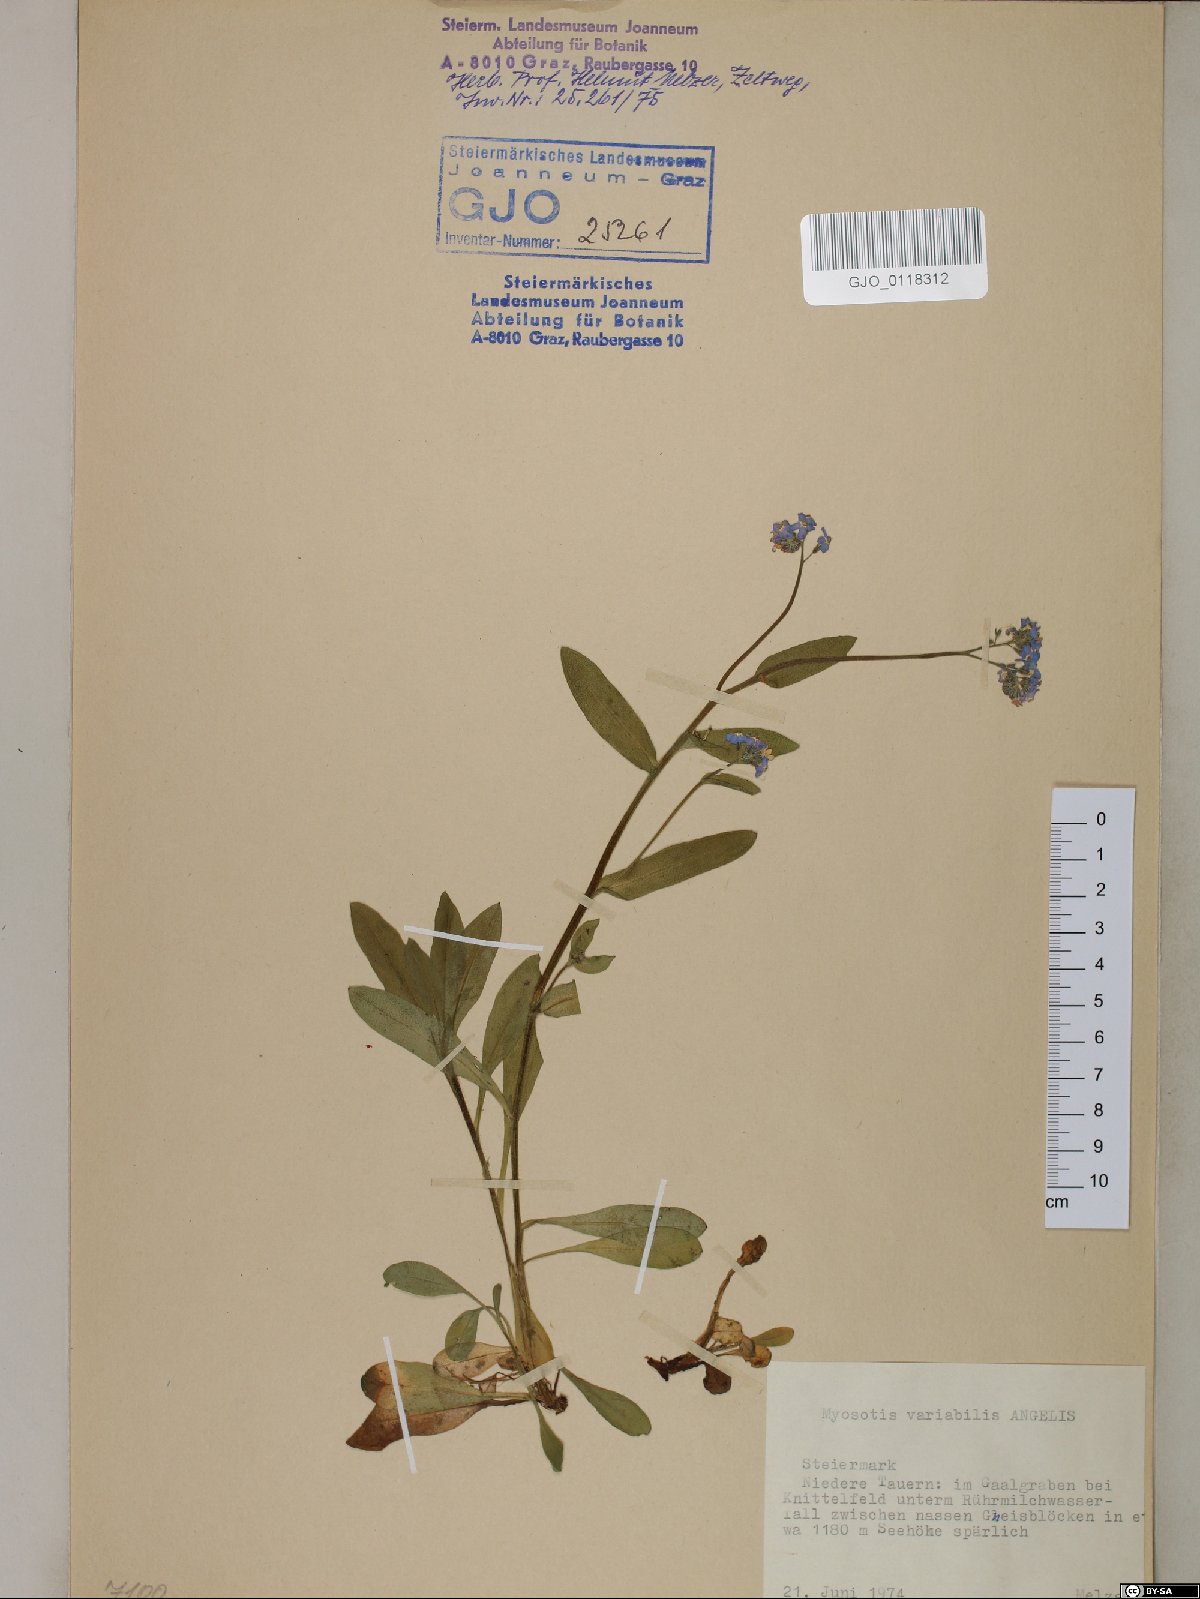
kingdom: Plantae
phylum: Tracheophyta
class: Magnoliopsida
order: Boraginales
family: Boraginaceae
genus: Myosotis
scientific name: Myosotis decumbens
